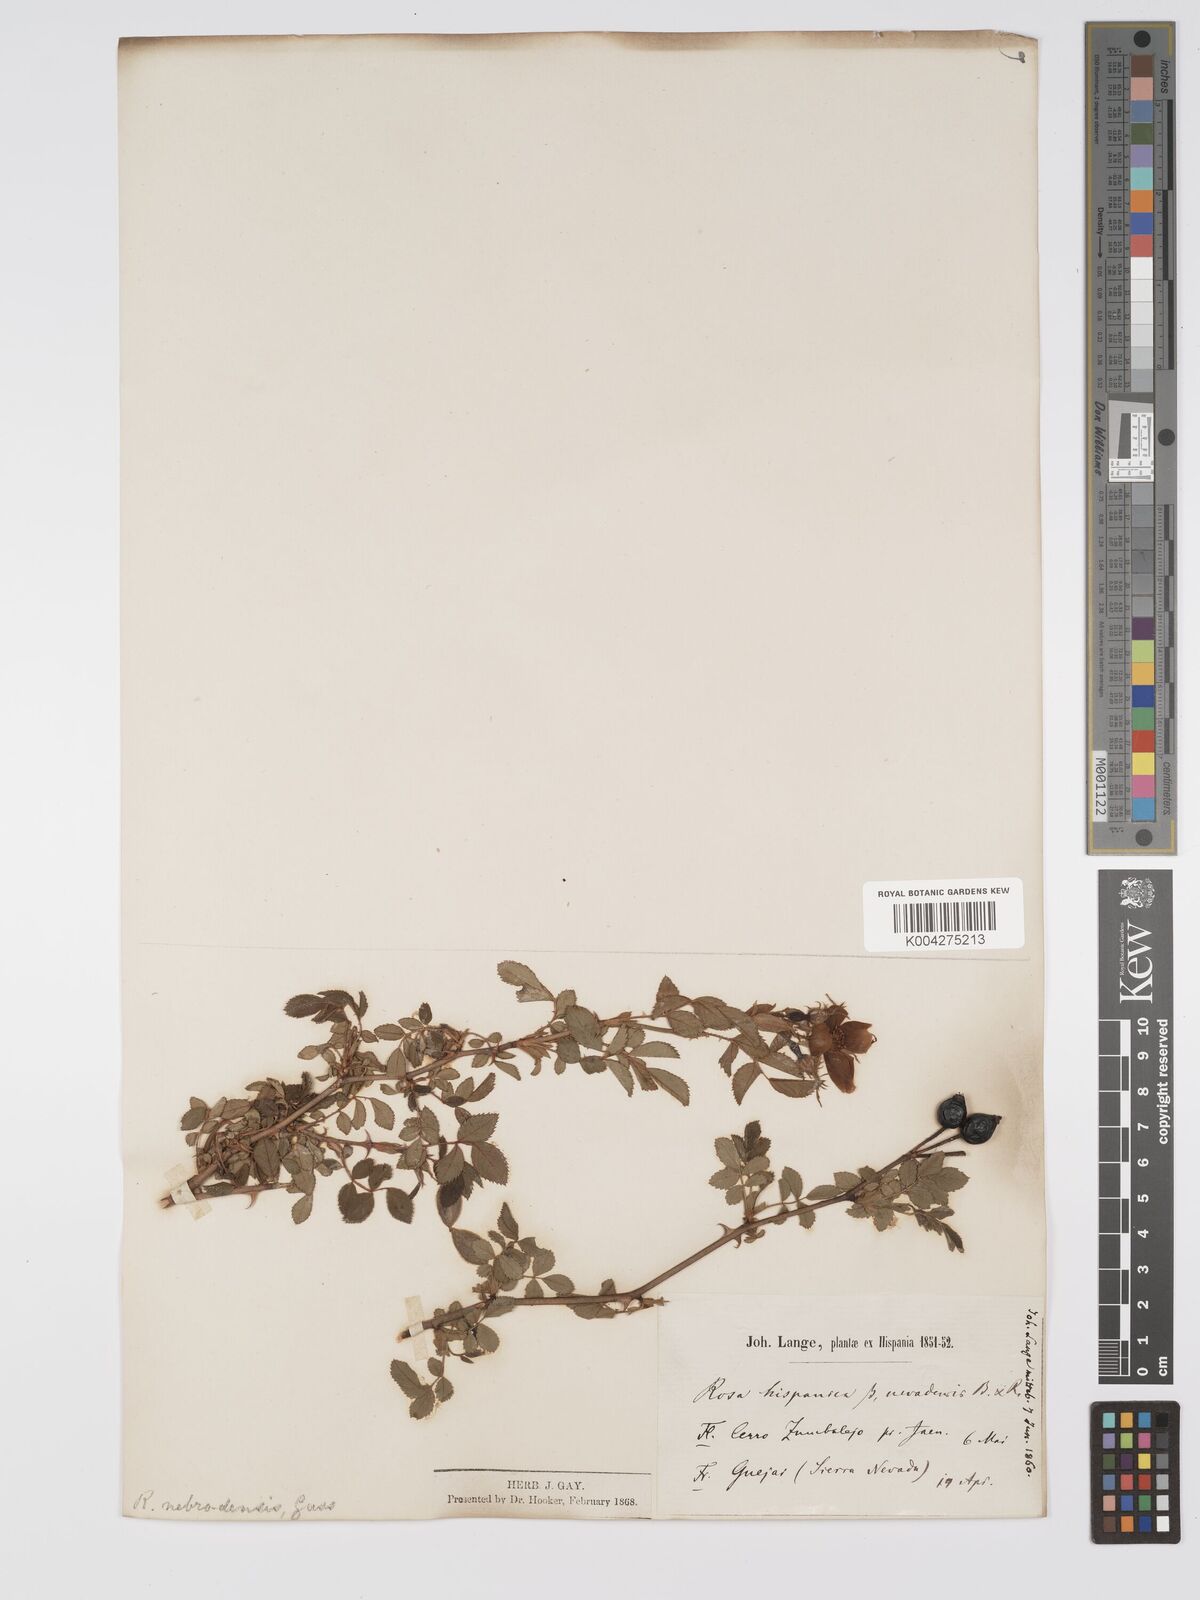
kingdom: Plantae
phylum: Tracheophyta
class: Magnoliopsida
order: Rosales
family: Rosaceae
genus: Rosa
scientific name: Rosa
